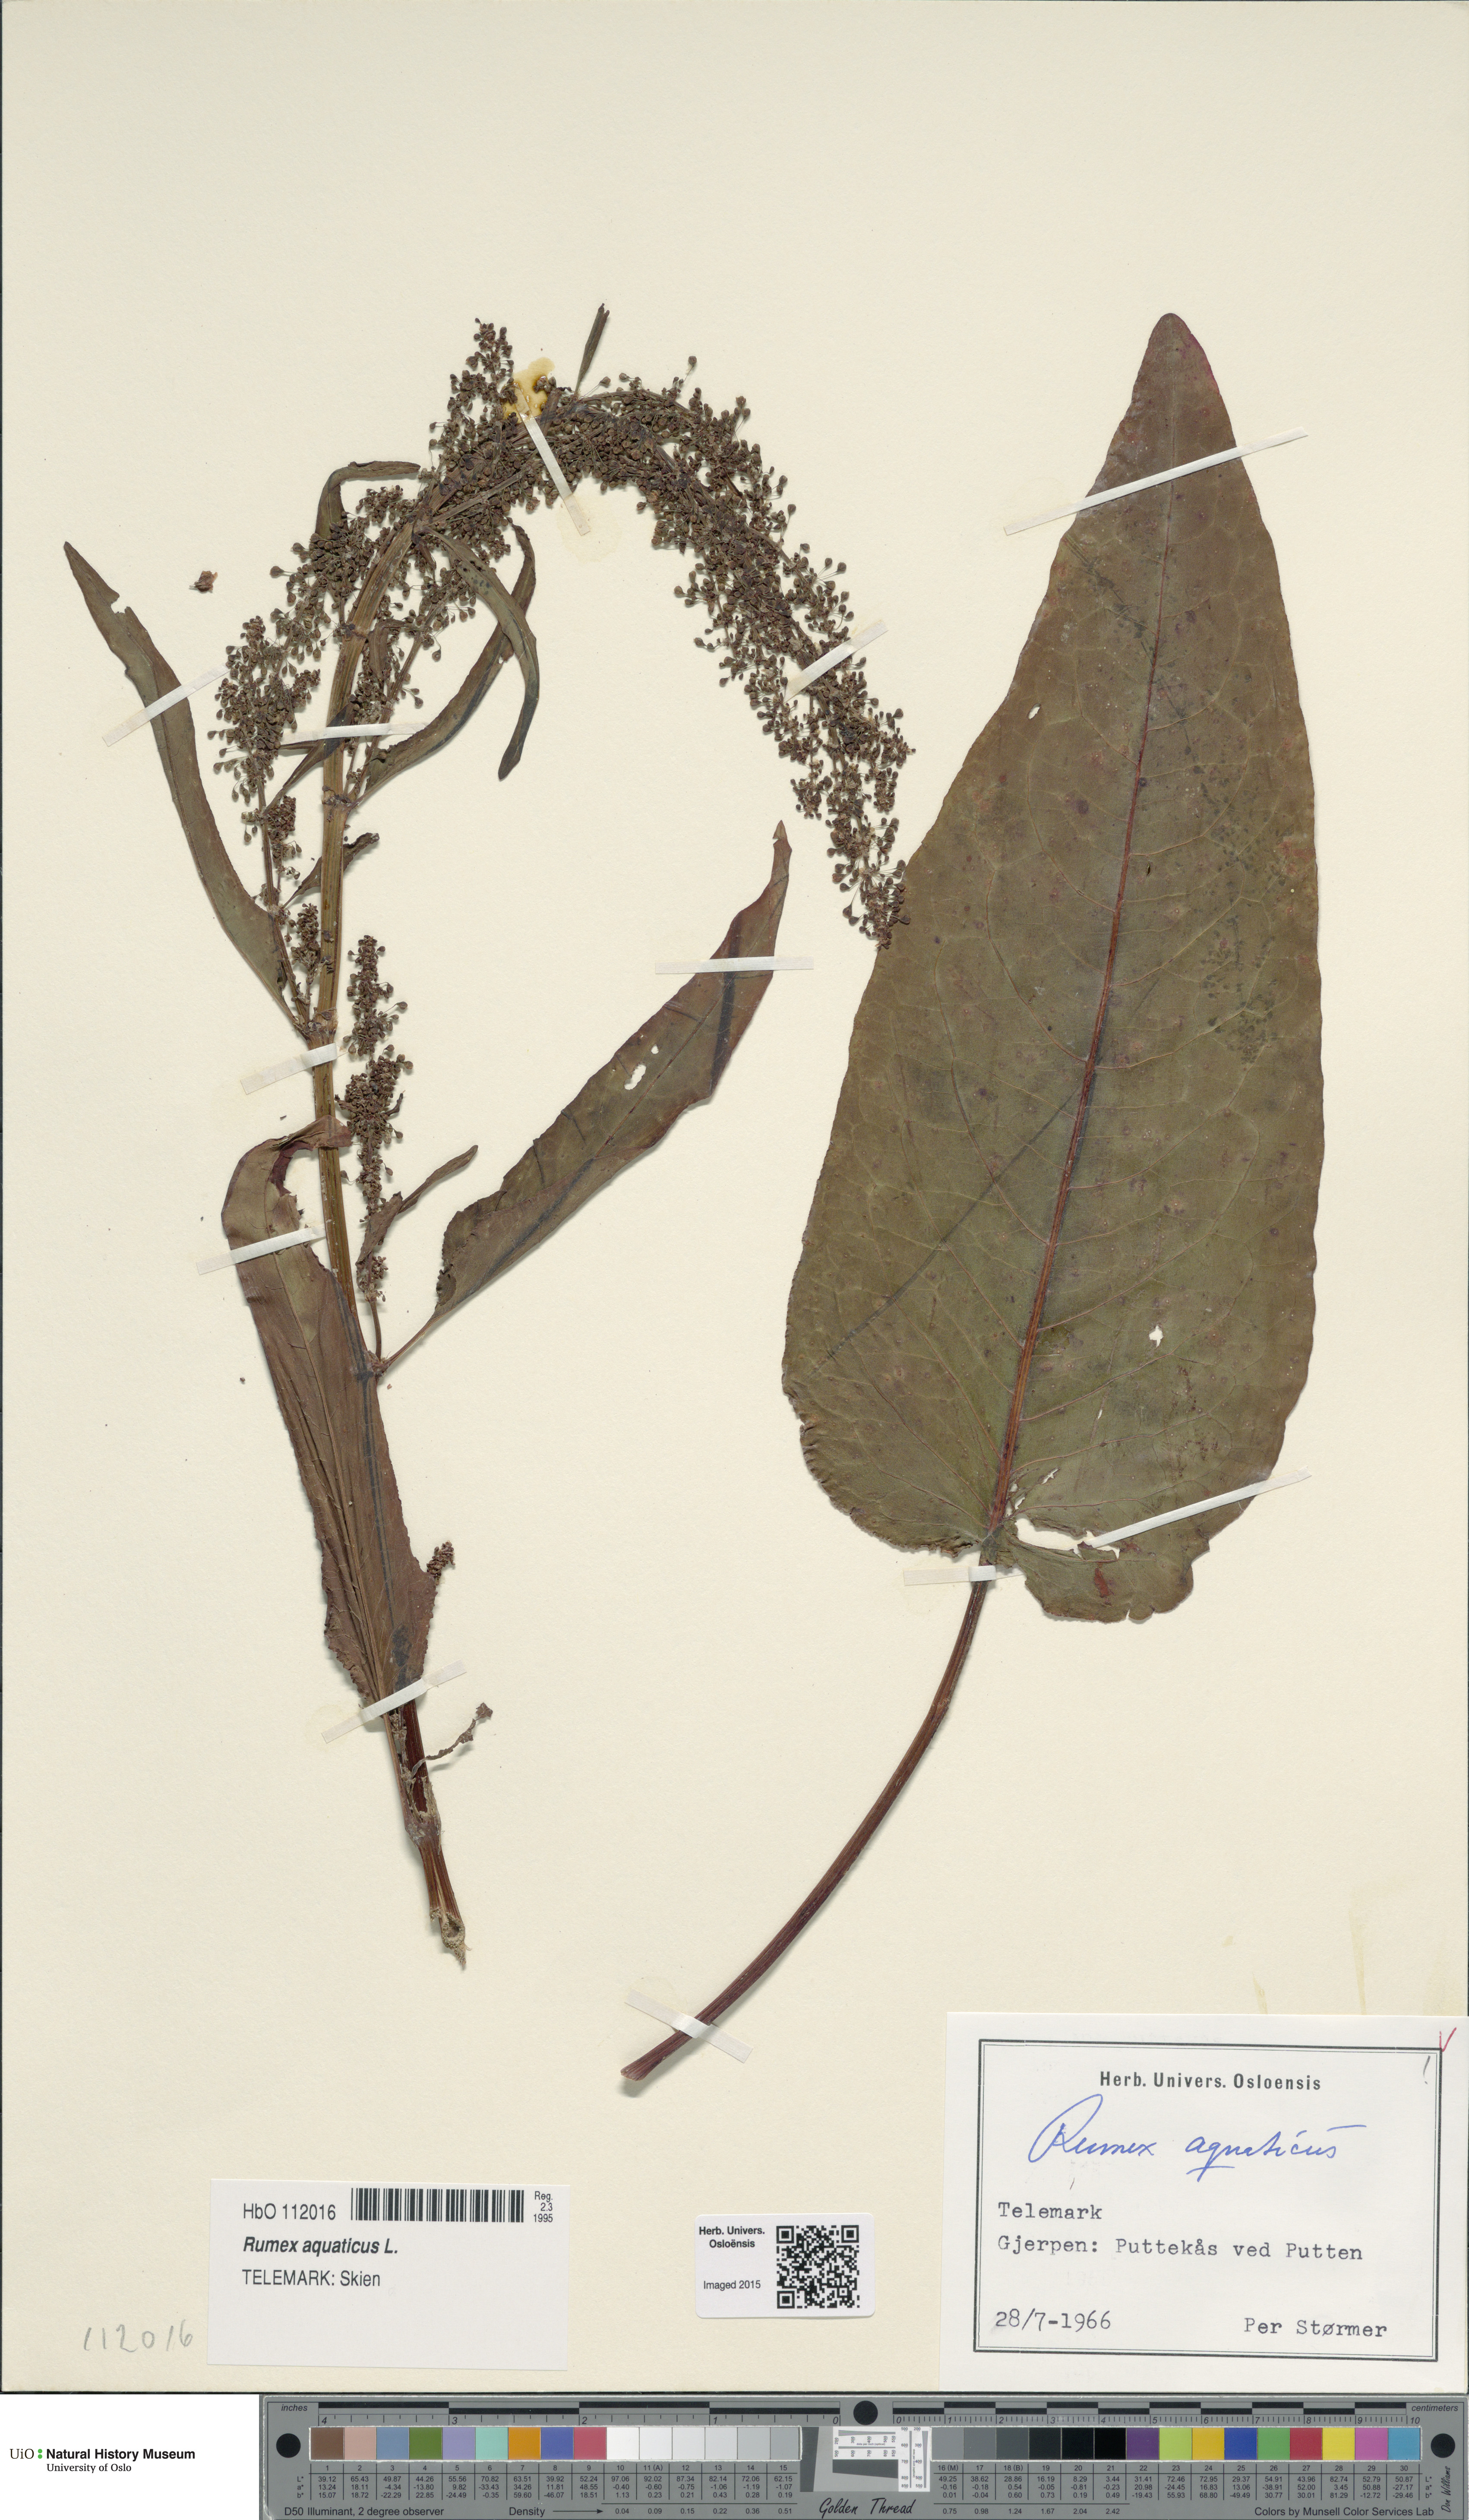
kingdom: Plantae
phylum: Tracheophyta
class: Magnoliopsida
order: Caryophyllales
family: Polygonaceae
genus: Rumex
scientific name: Rumex aquaticus
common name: Scottish dock
